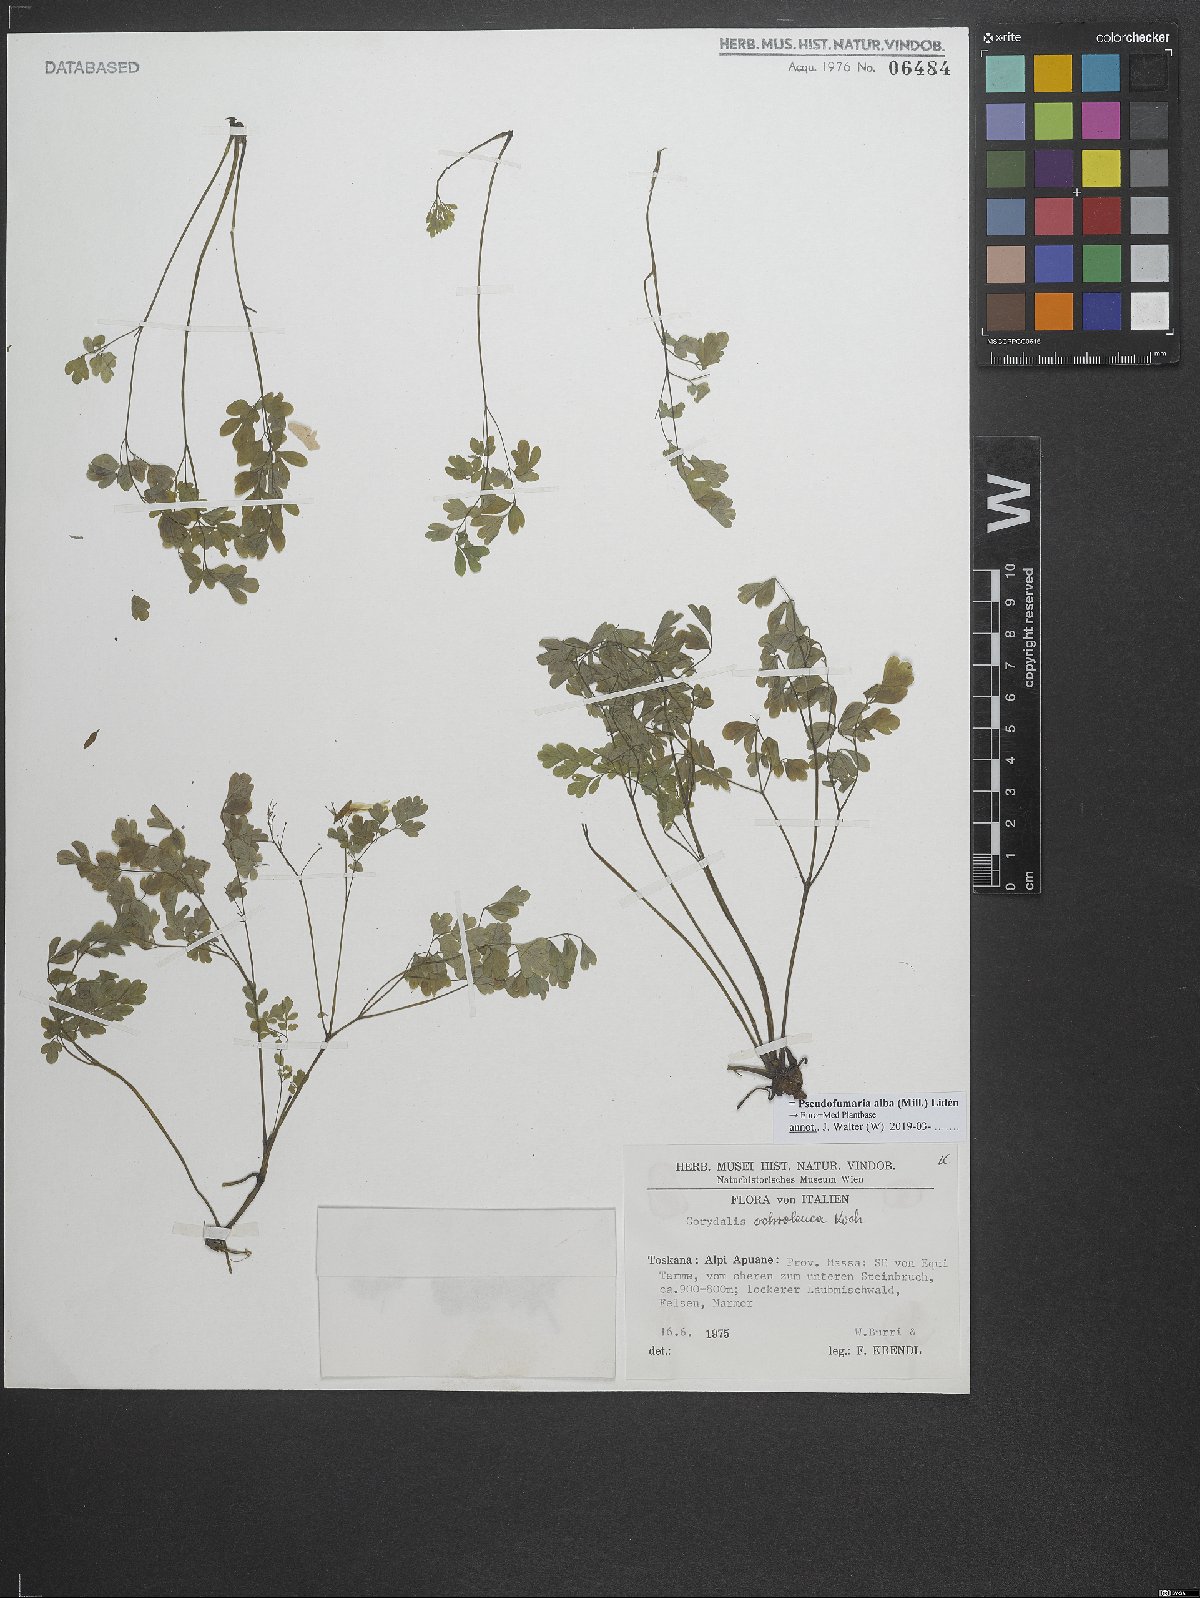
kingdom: Plantae
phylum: Tracheophyta
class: Magnoliopsida
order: Ranunculales
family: Papaveraceae
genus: Pseudofumaria
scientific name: Pseudofumaria alba
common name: Pale corydalis
